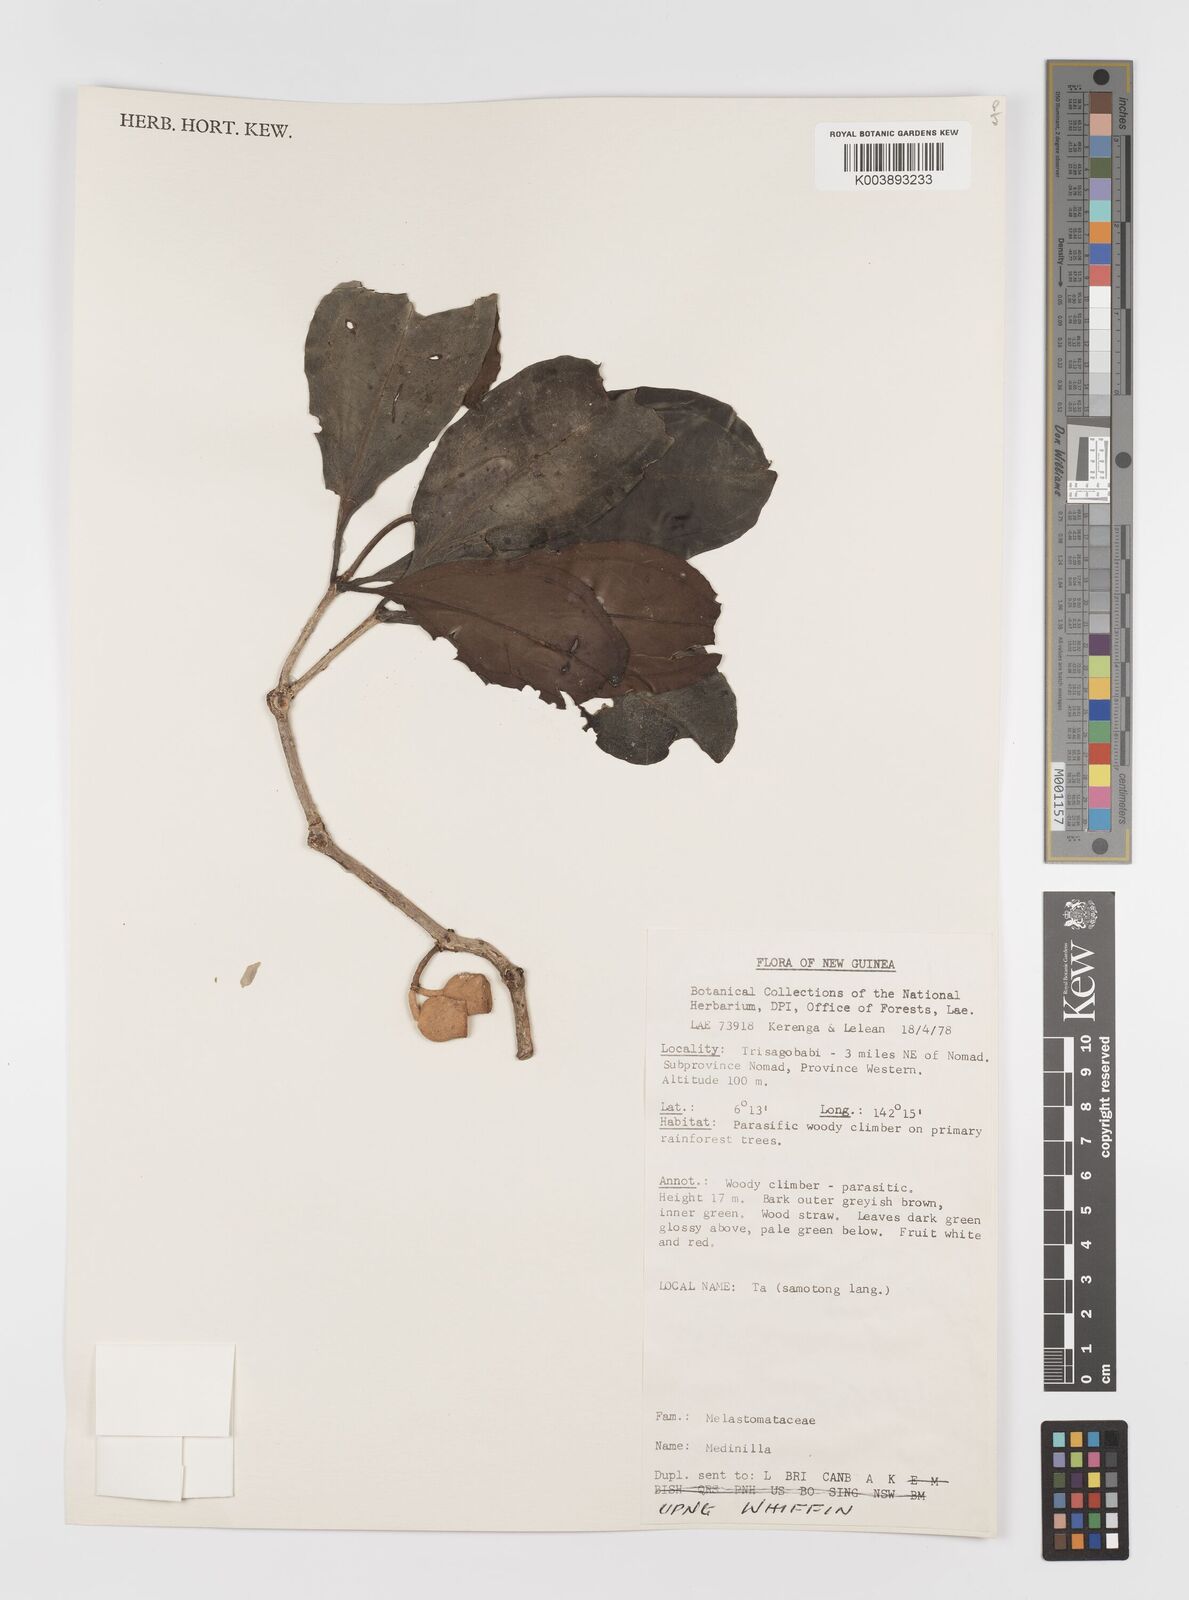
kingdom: Plantae
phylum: Tracheophyta
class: Magnoliopsida
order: Myrtales
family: Melastomataceae
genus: Medinilla
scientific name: Medinilla
